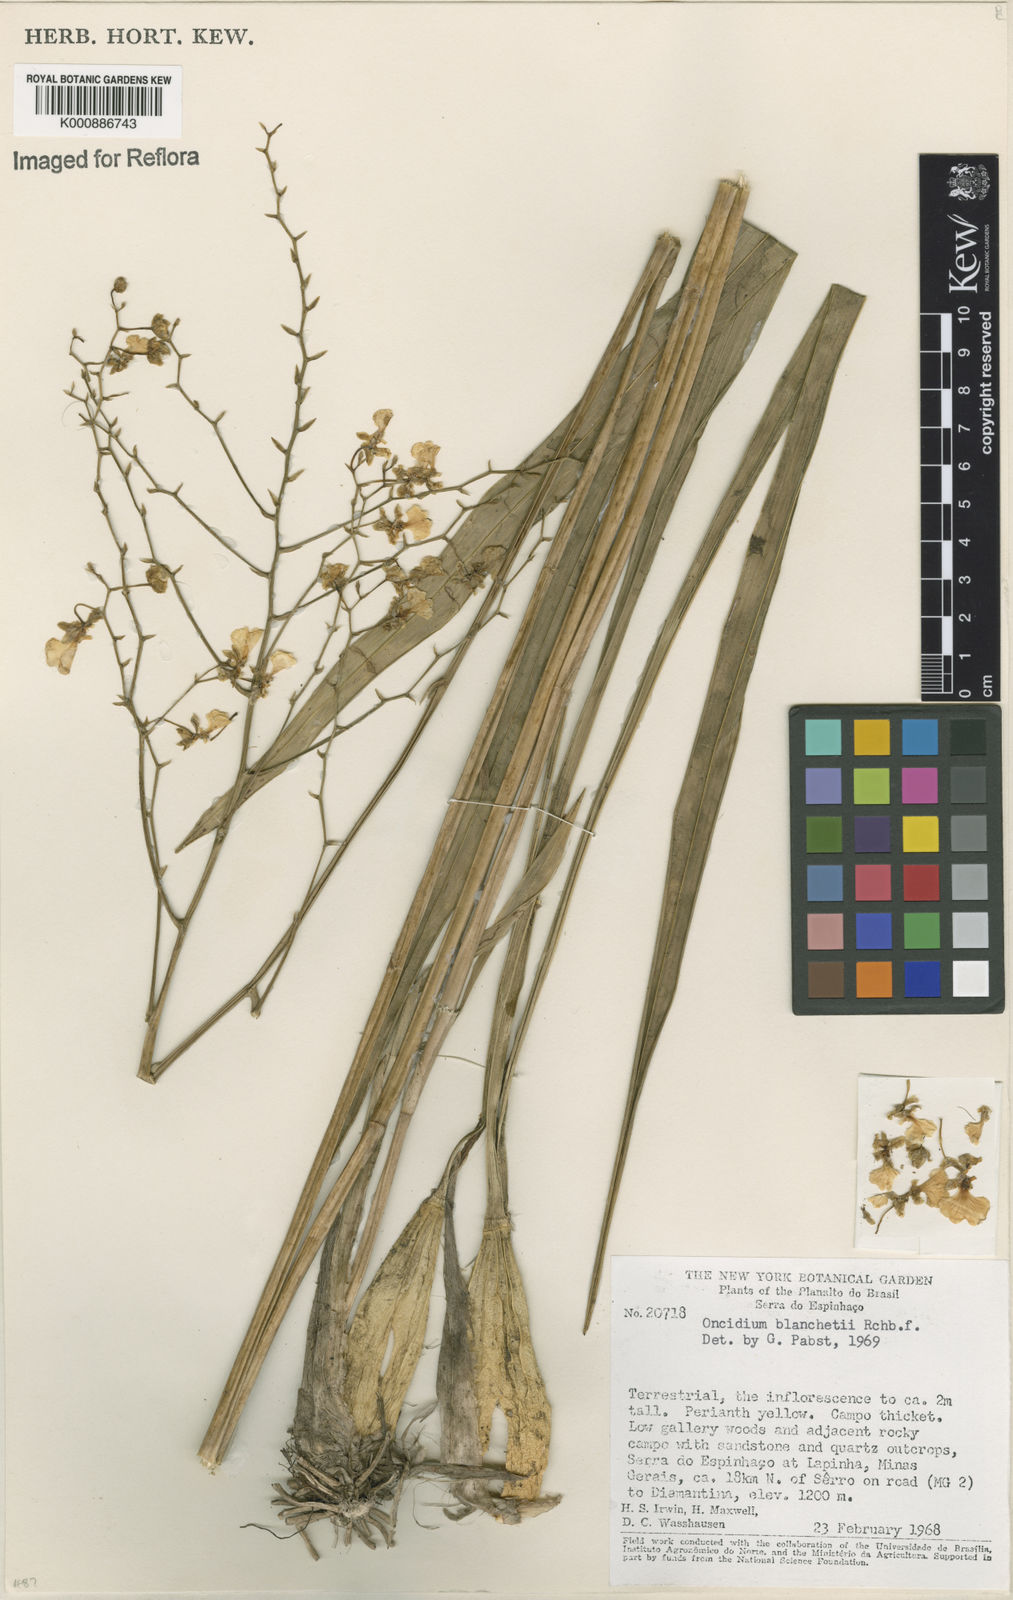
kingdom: Plantae
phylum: Tracheophyta
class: Liliopsida
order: Asparagales
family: Orchidaceae
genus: Gomesa
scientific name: Gomesa ramosa
